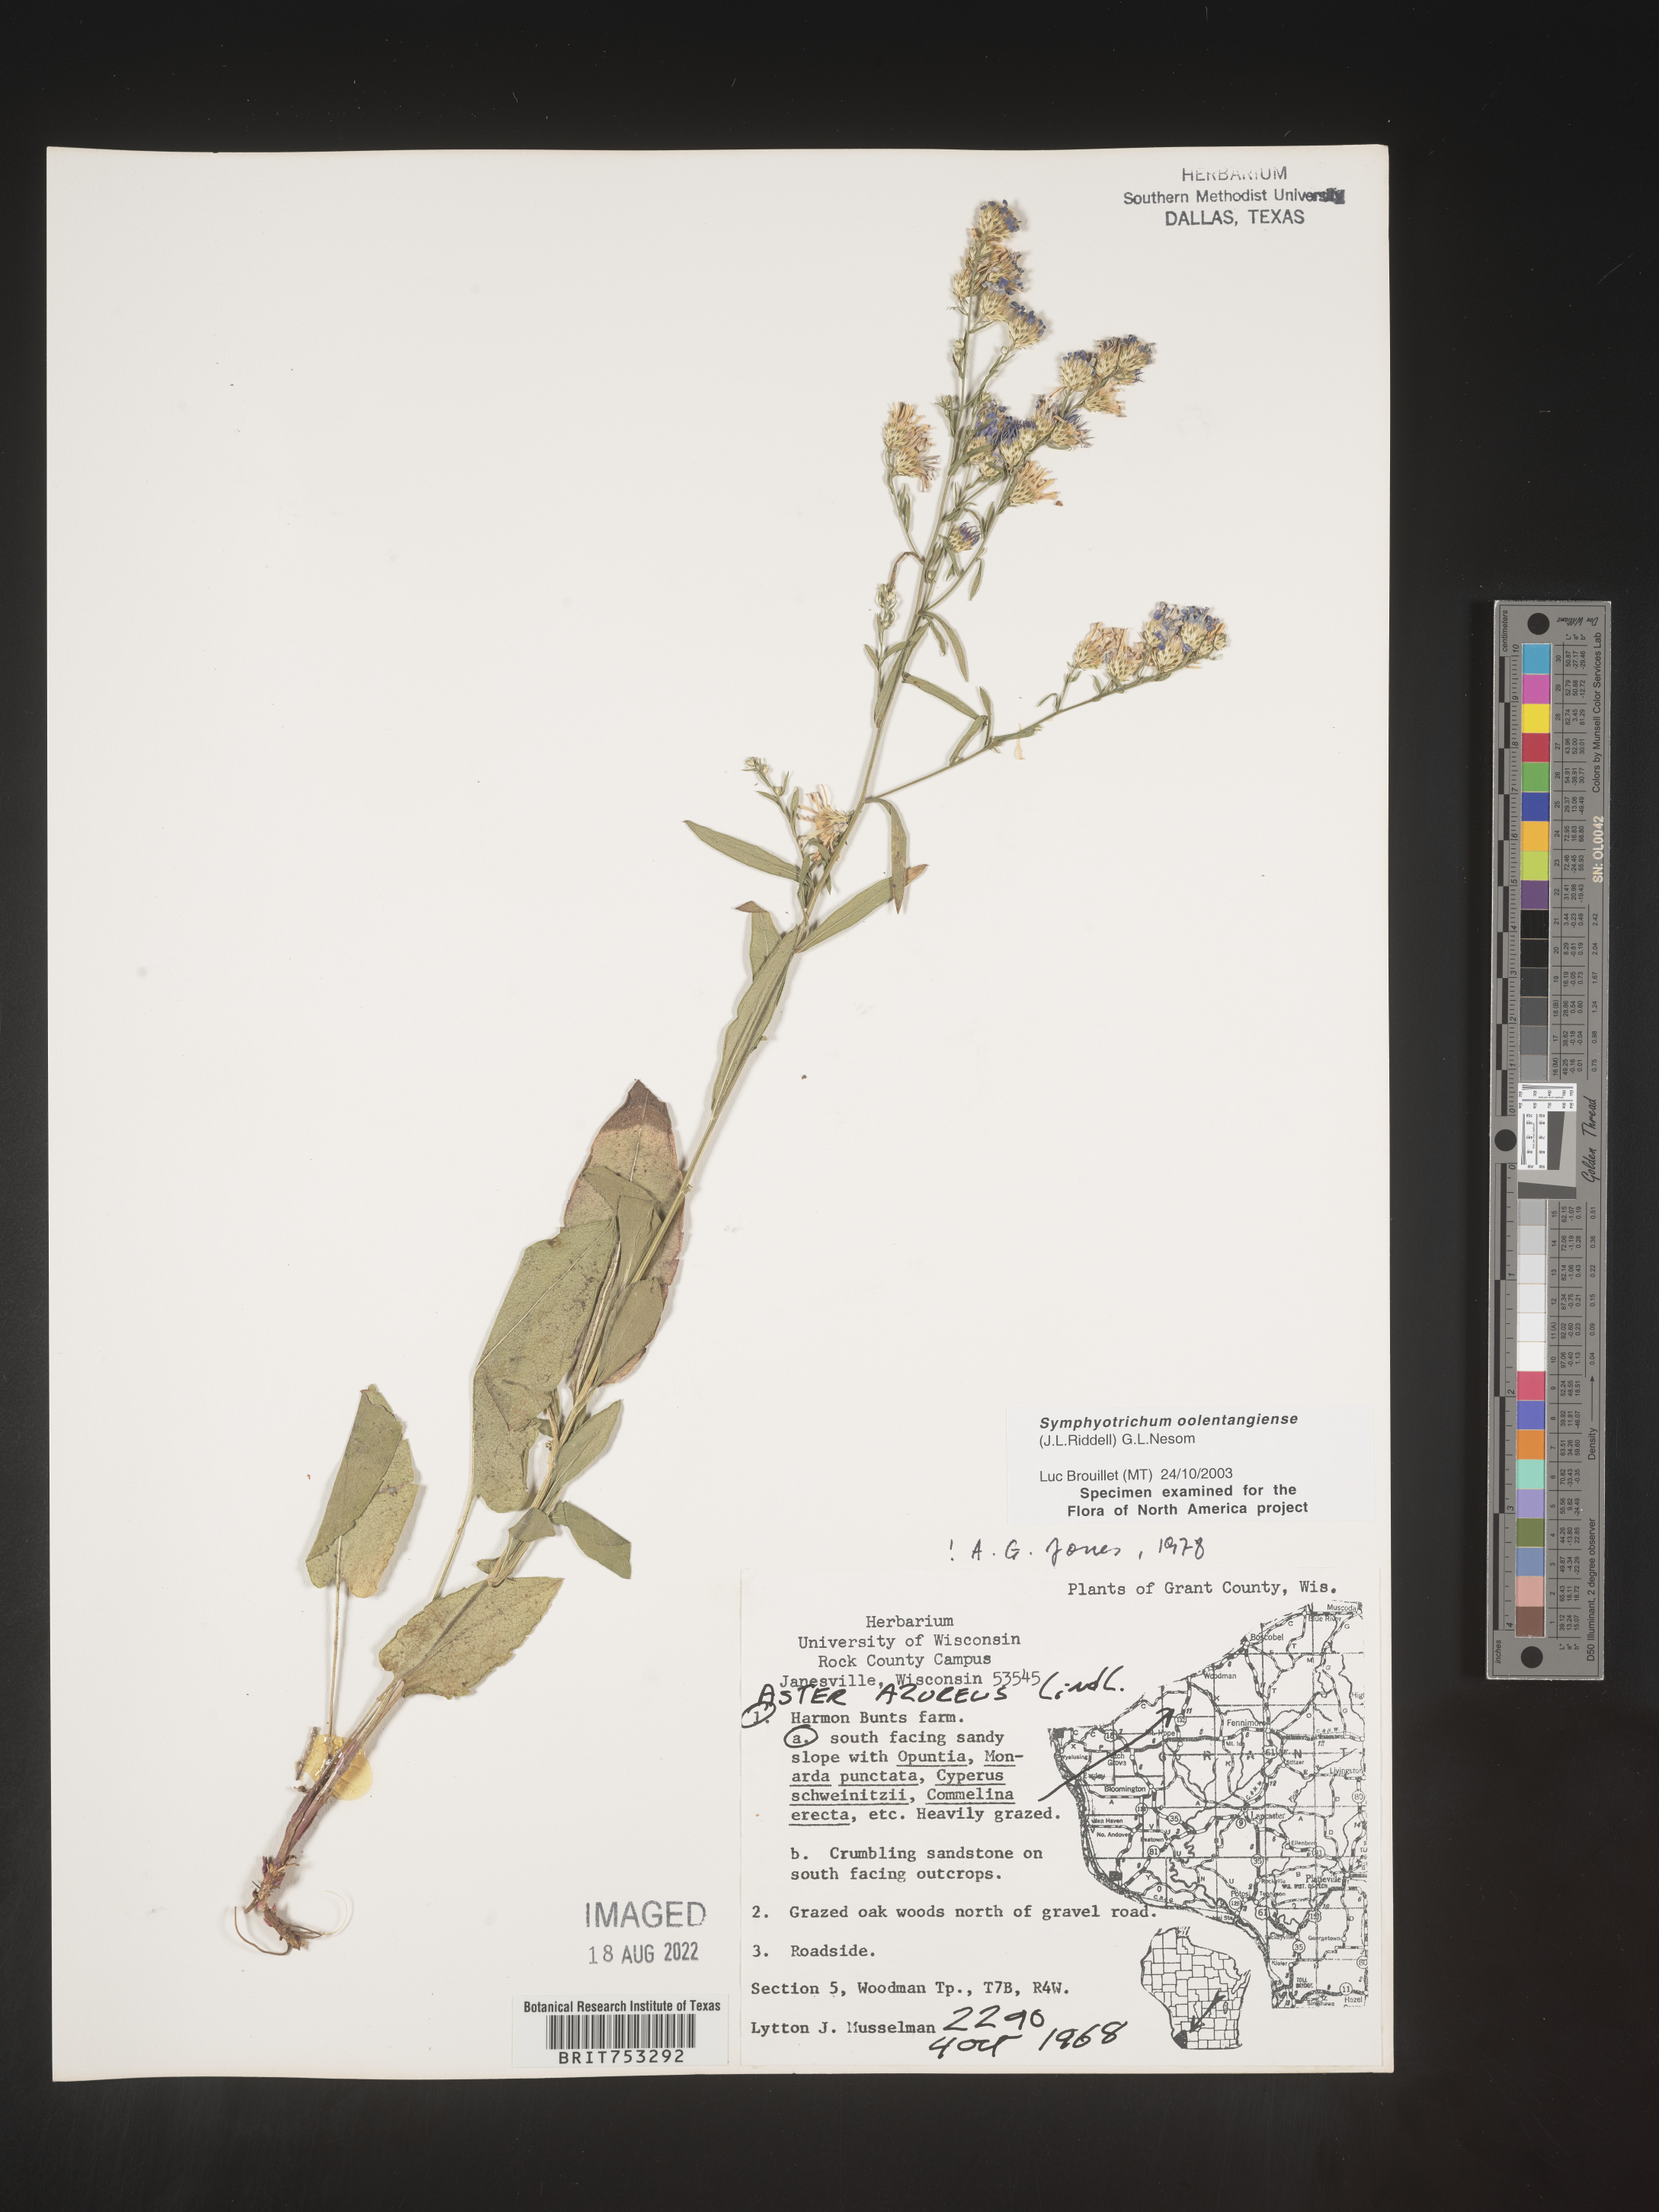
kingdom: Plantae
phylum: Tracheophyta
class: Magnoliopsida
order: Asterales
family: Asteraceae
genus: Symphyotrichum
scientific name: Symphyotrichum oolentangiense
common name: Azure aster
